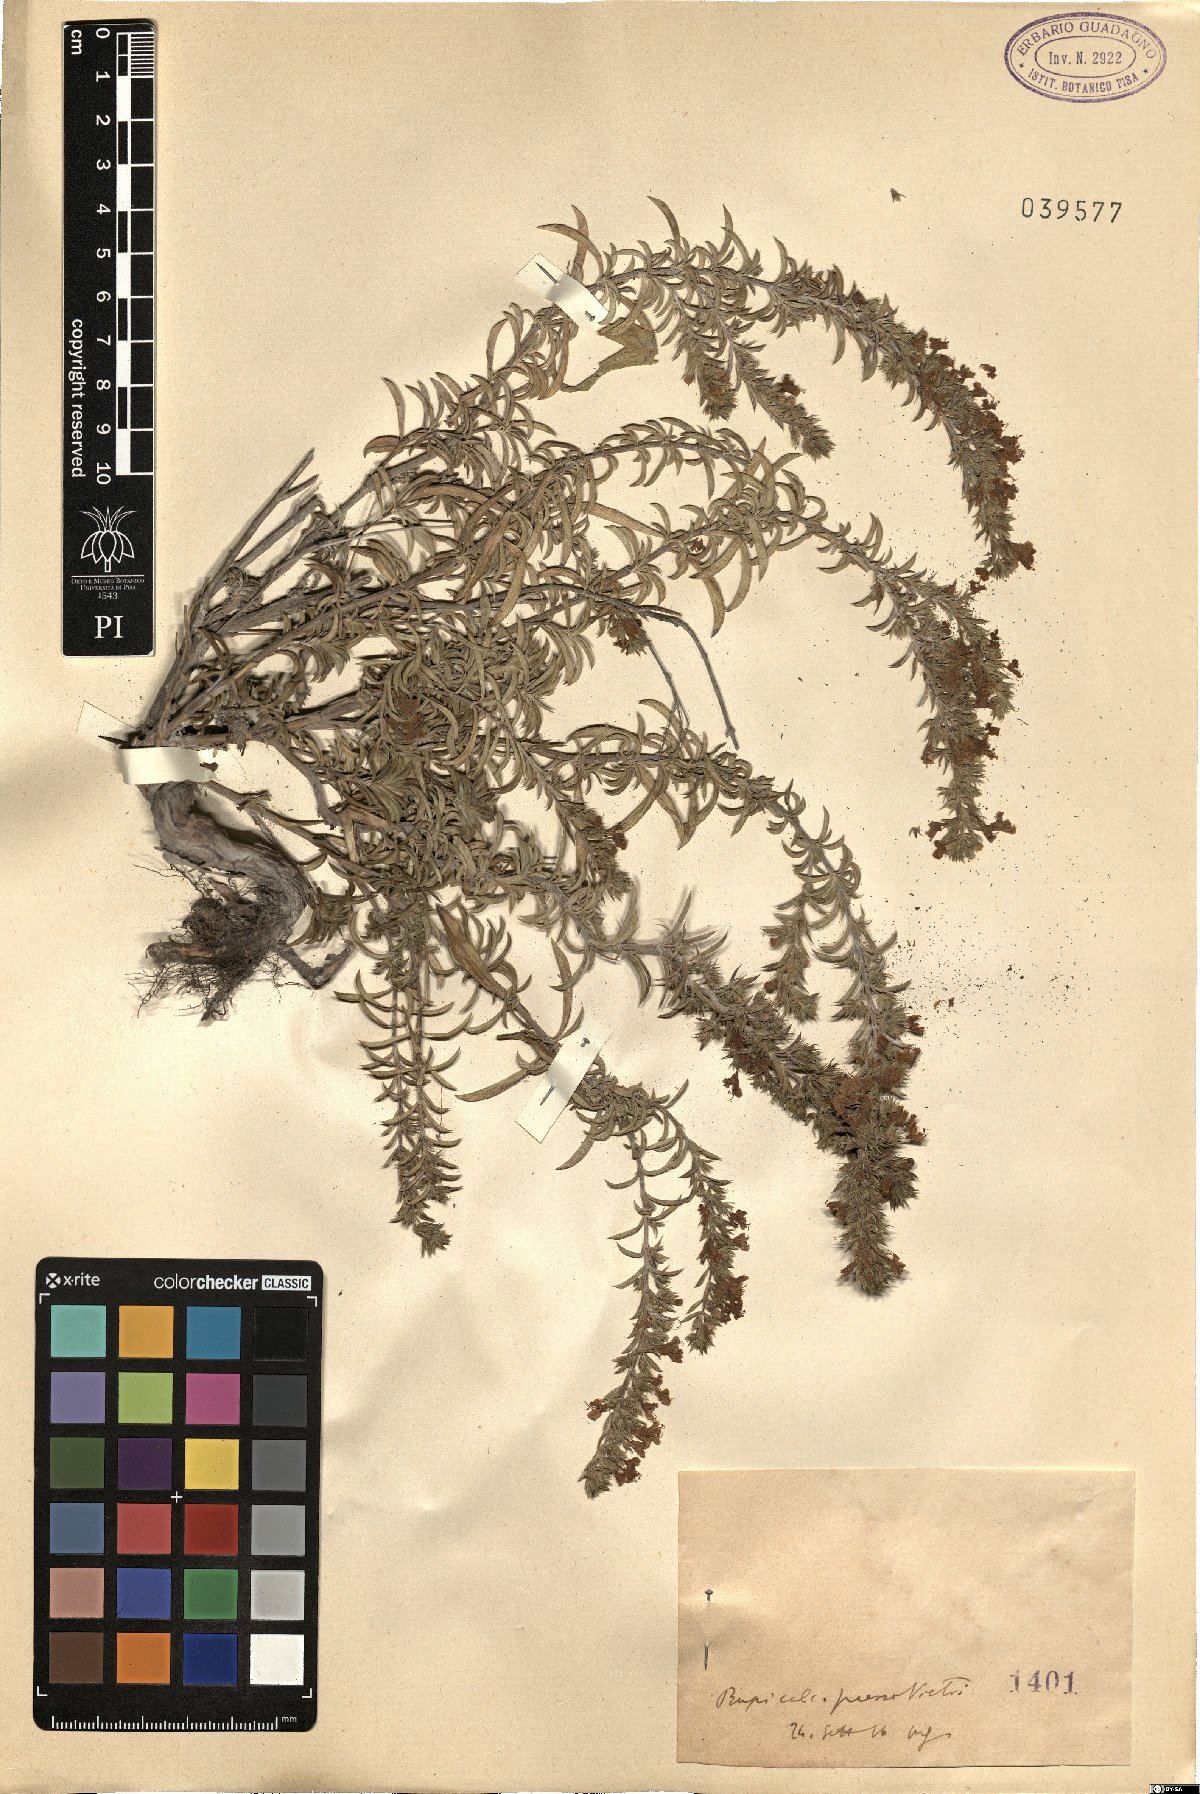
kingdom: Plantae
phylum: Tracheophyta
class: Magnoliopsida
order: Lamiales
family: Lamiaceae
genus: Micromeria
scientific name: Micromeria
